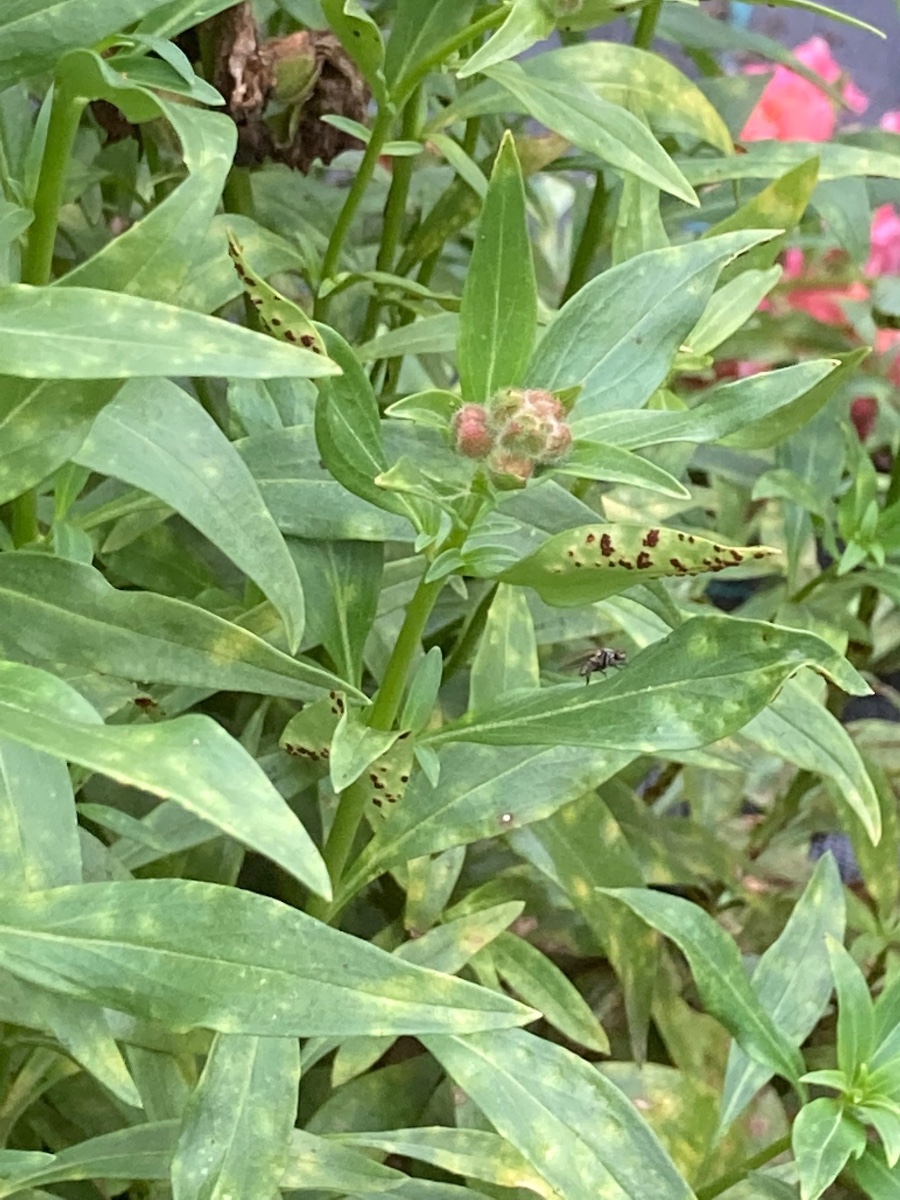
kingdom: Fungi
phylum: Basidiomycota
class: Pucciniomycetes
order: Pucciniales
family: Pucciniaceae
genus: Puccinia
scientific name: Puccinia antirrhini
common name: Antirrhinum rust
